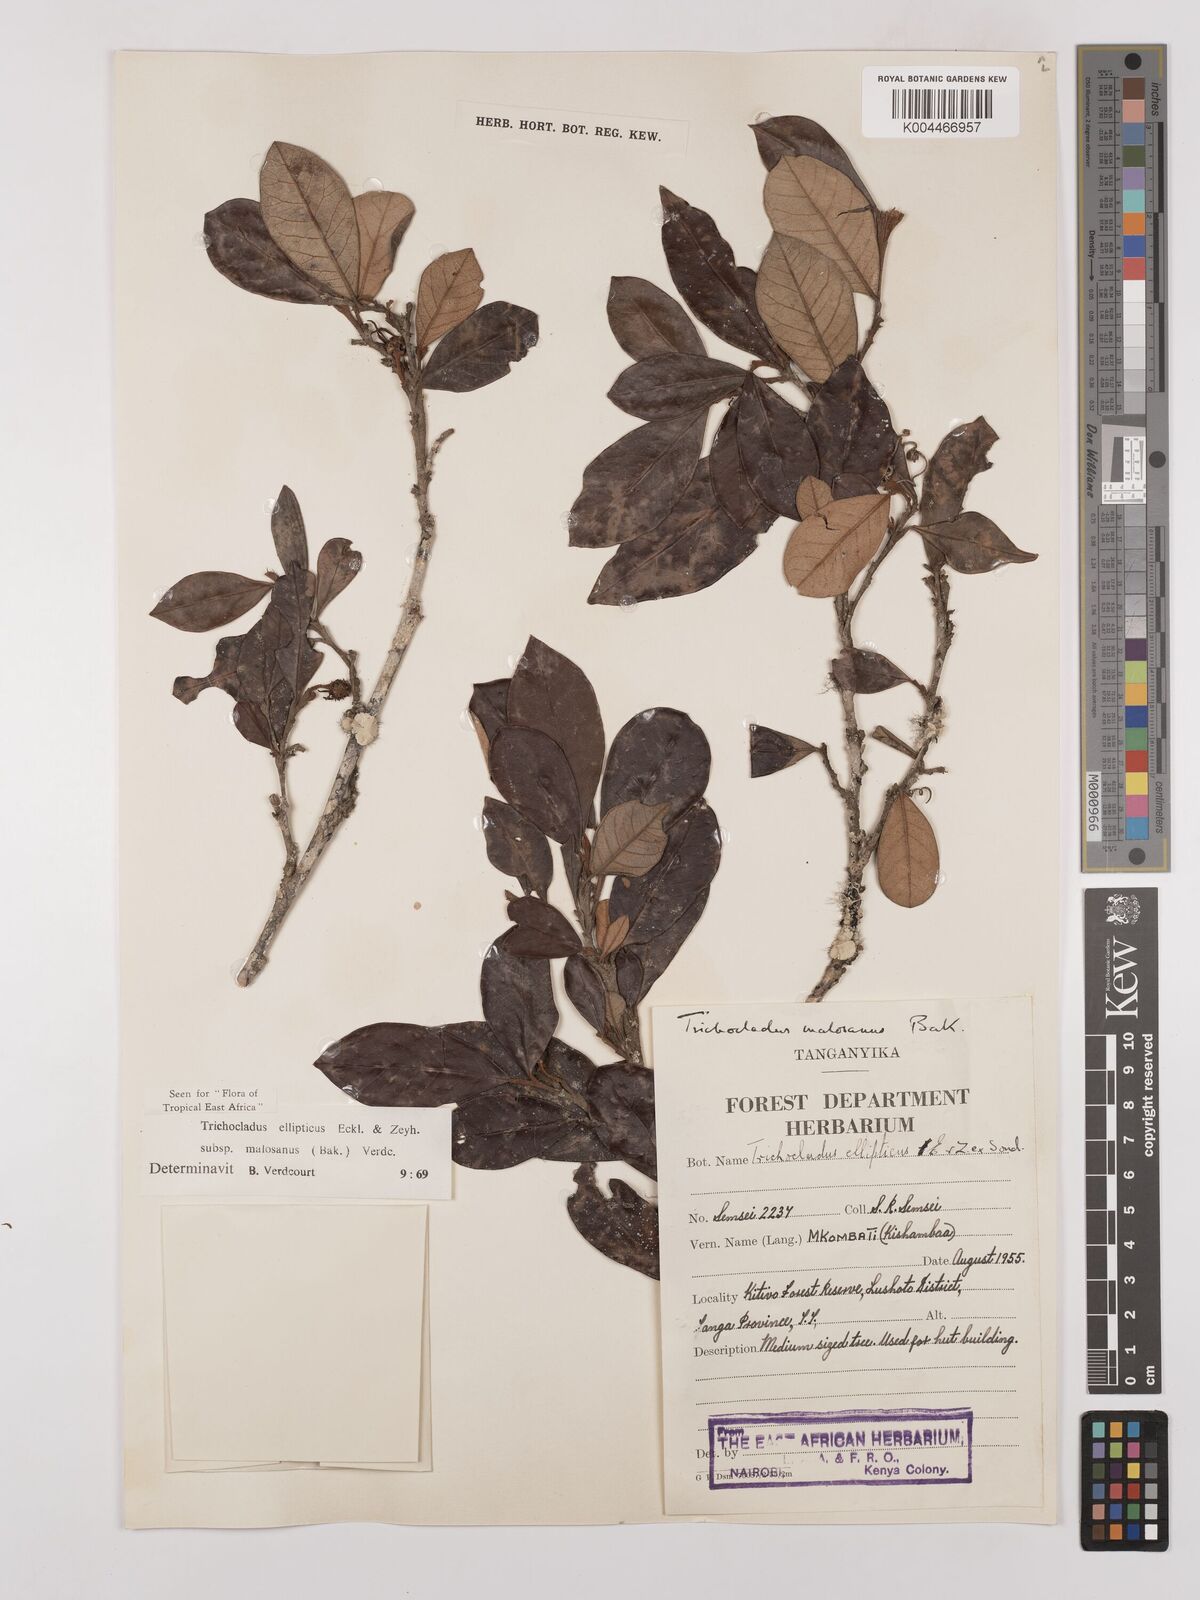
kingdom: Plantae
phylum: Tracheophyta
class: Magnoliopsida
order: Saxifragales
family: Hamamelidaceae
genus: Trichocladus
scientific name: Trichocladus ellipticus
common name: White witch-hazel
